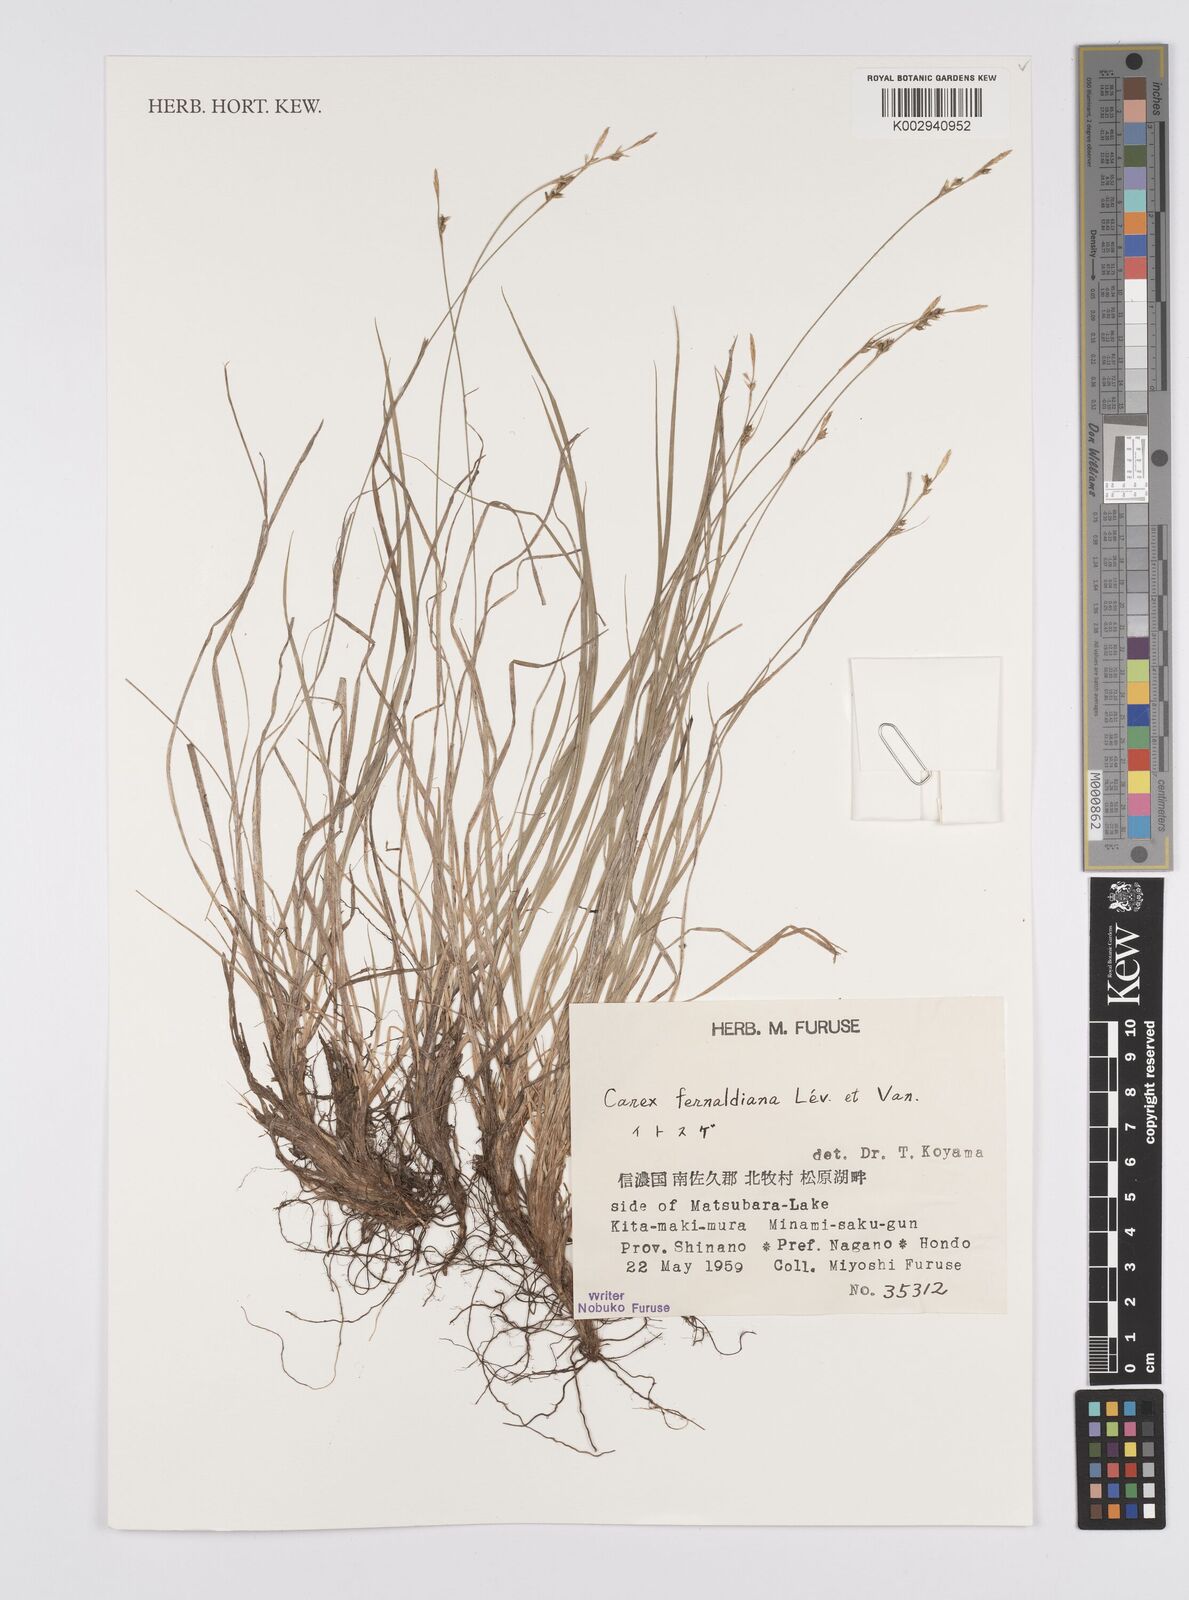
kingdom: Plantae
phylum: Tracheophyta
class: Liliopsida
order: Poales
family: Cyperaceae
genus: Carex
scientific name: Carex breviculmis
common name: Asian shortstem sedge
